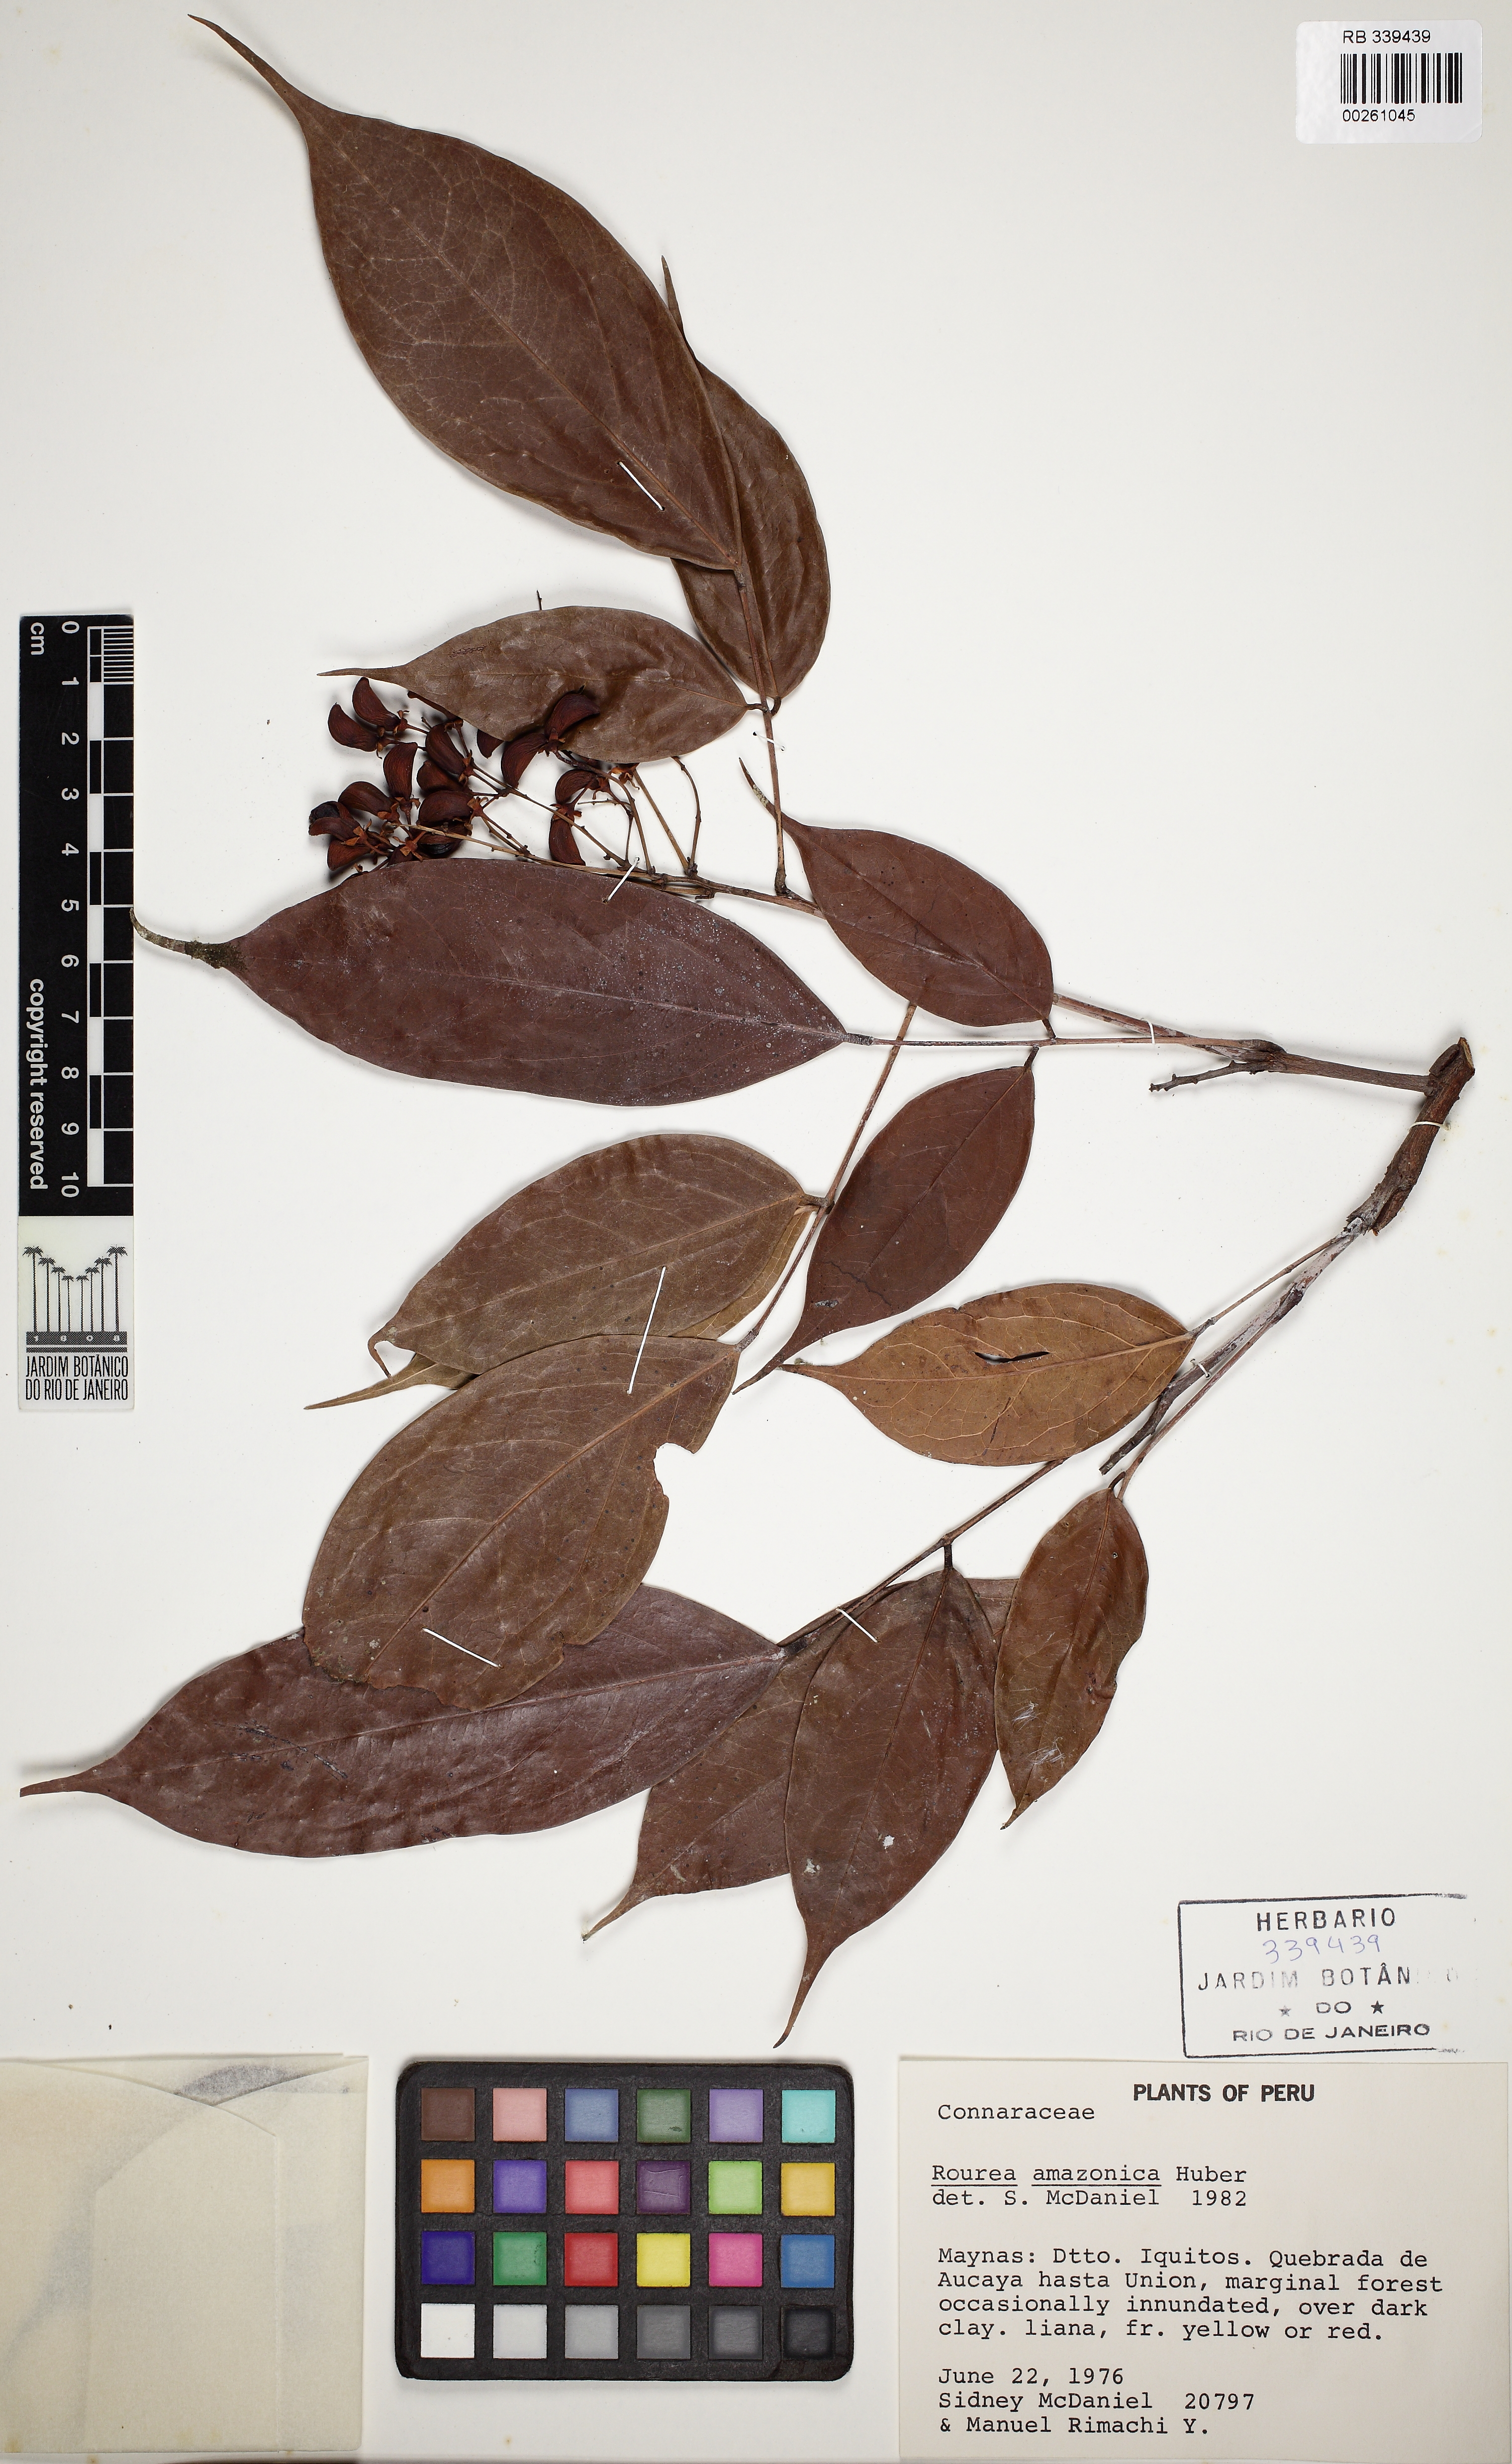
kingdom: Plantae
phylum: Tracheophyta
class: Magnoliopsida
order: Oxalidales
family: Connaraceae
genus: Rourea
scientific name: Rourea amazonica
